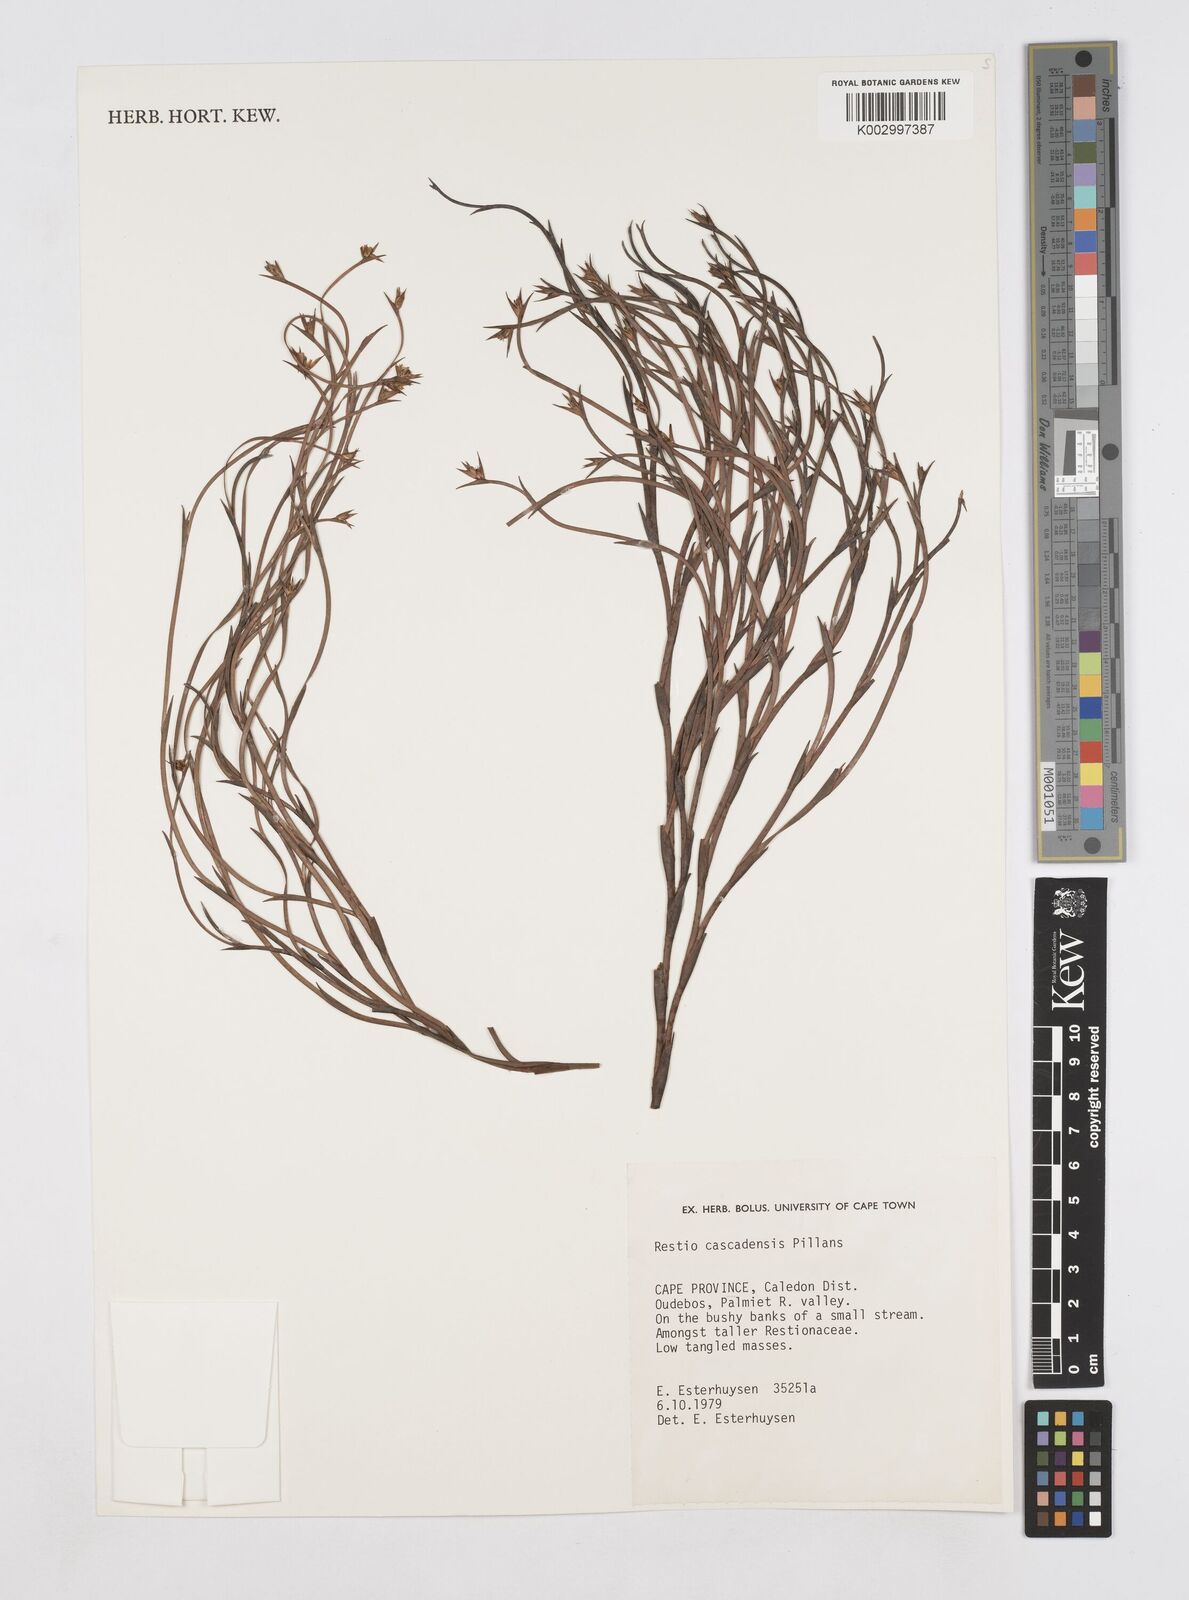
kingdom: Plantae
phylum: Tracheophyta
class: Liliopsida
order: Poales
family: Restionaceae
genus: Platycaulos
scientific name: Platycaulos cascadensis
